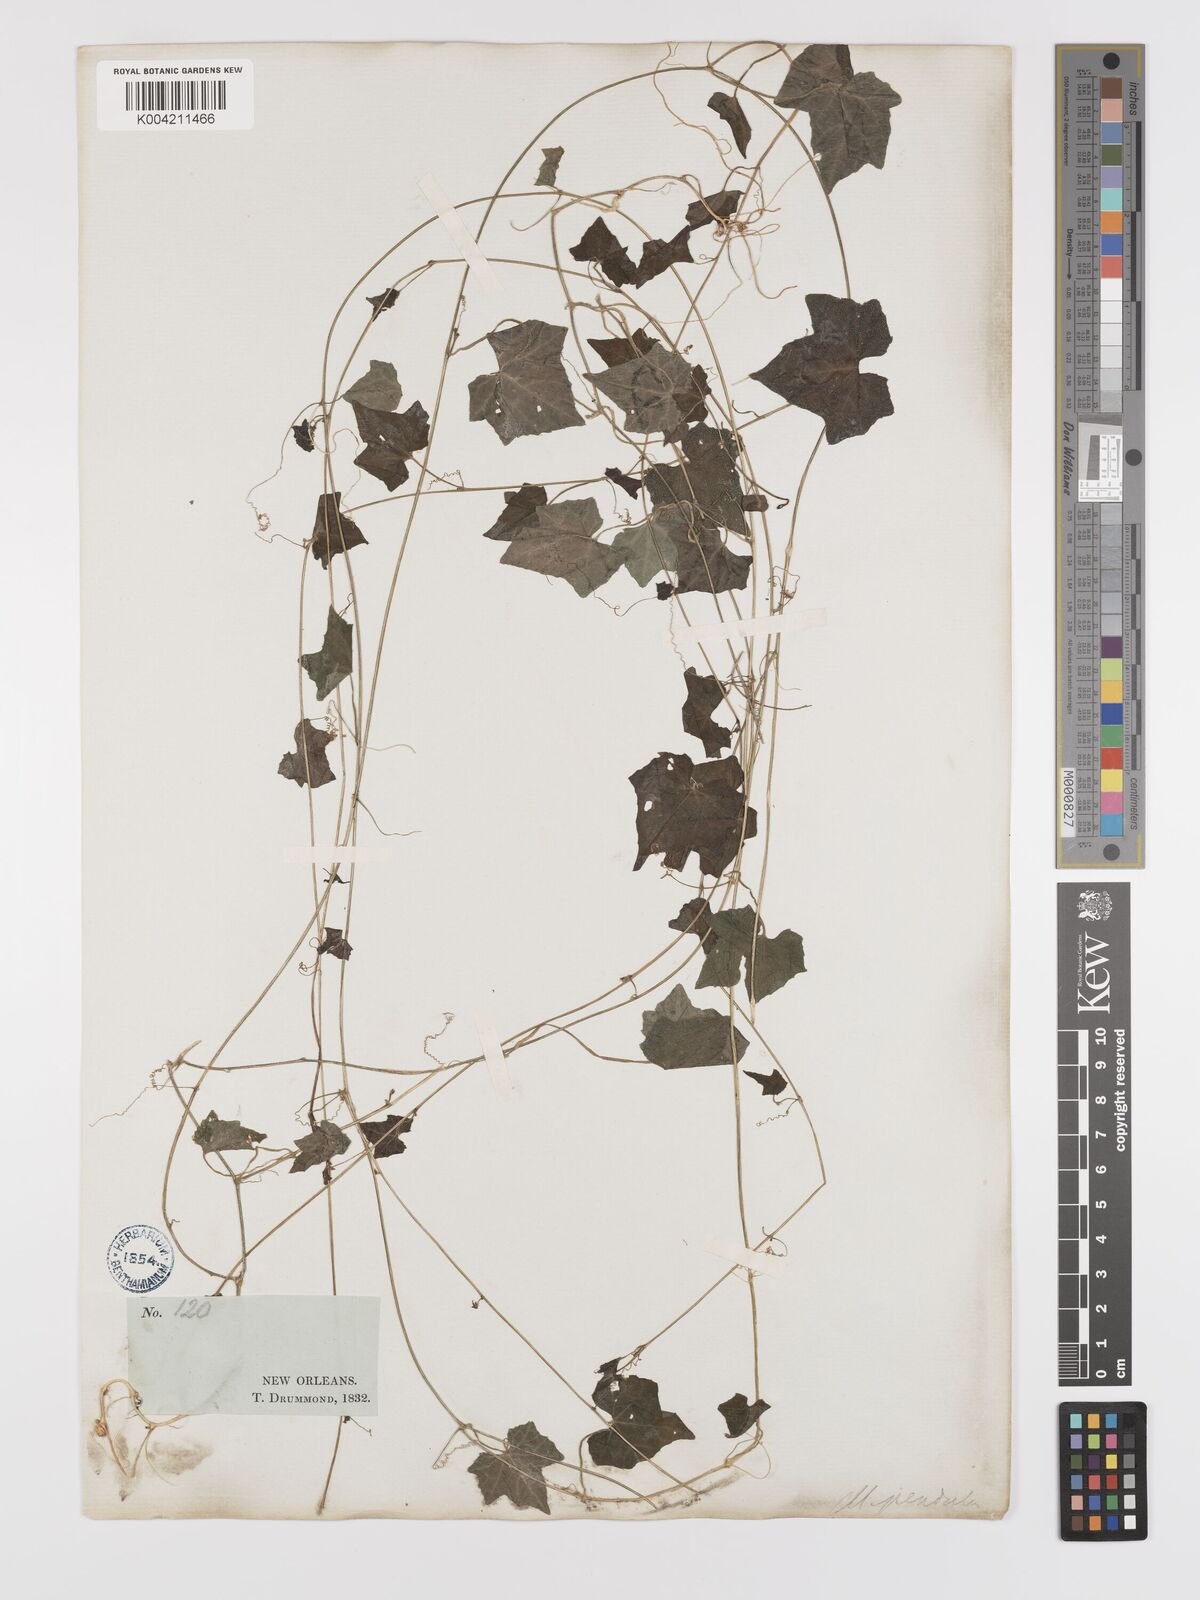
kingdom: Plantae
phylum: Tracheophyta
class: Magnoliopsida
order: Cucurbitales
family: Cucurbitaceae
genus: Melothria
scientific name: Melothria pendula
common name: Creeping-cucumber
